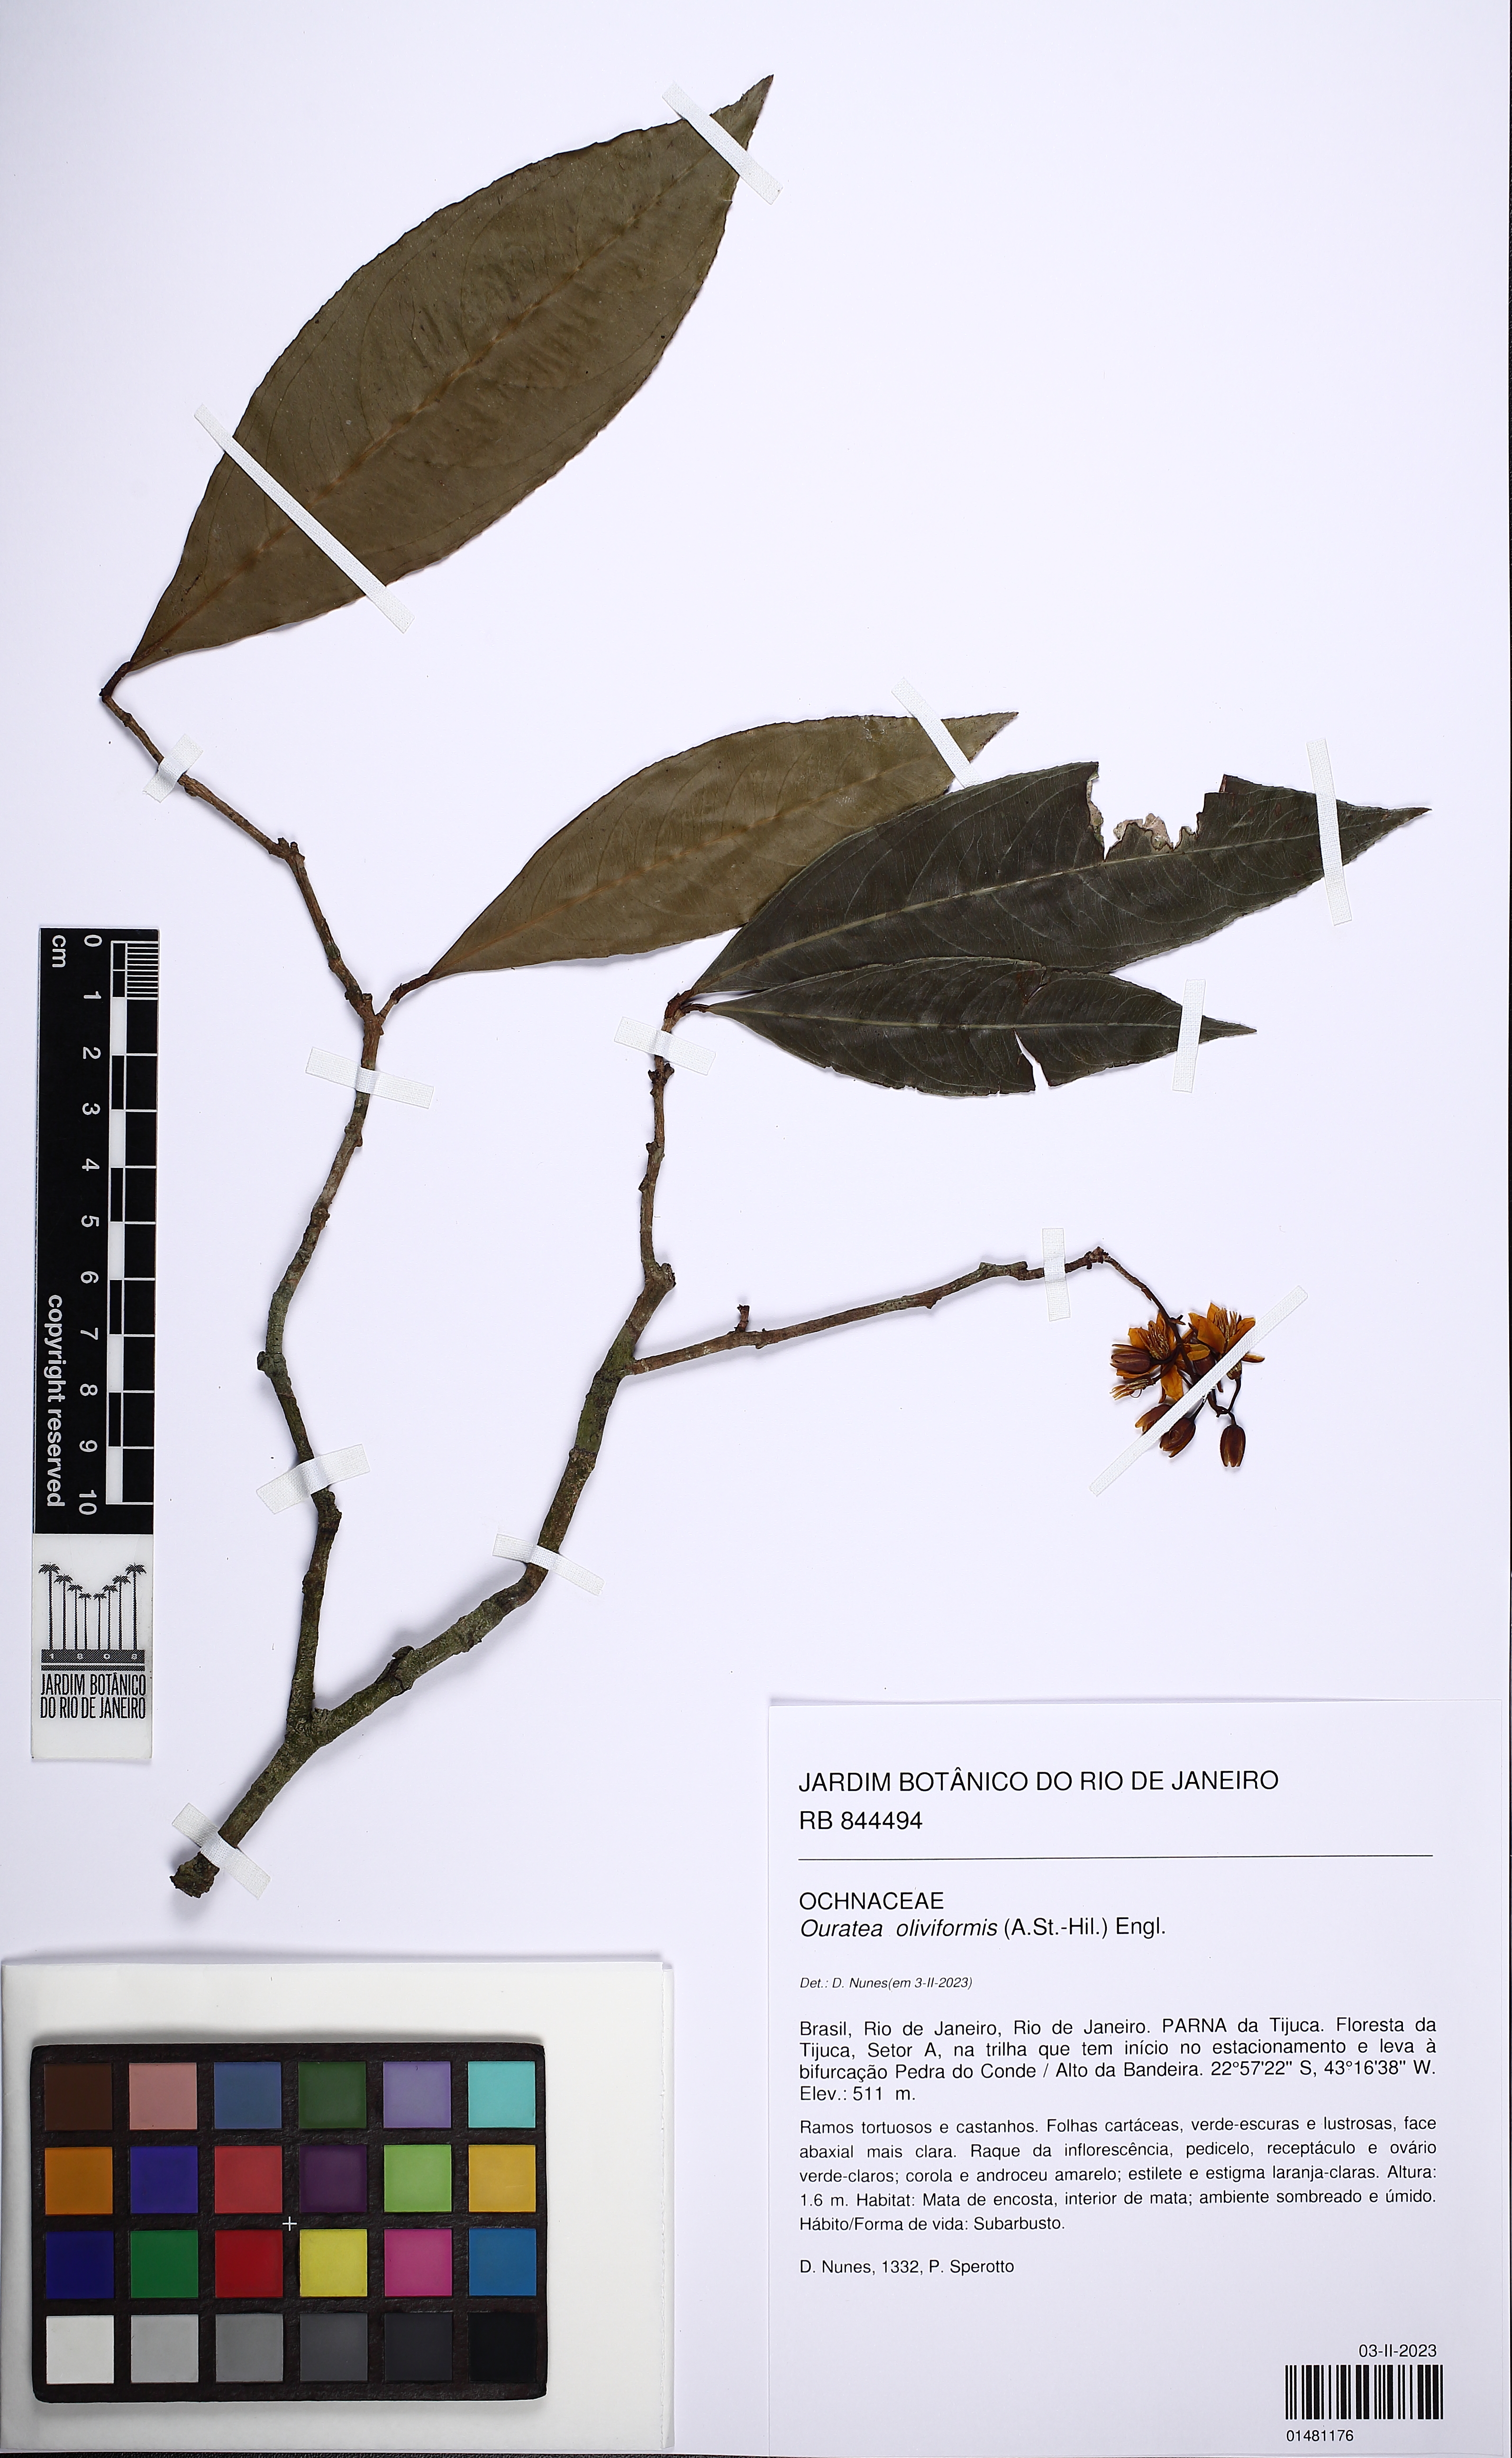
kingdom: Plantae
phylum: Tracheophyta
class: Magnoliopsida
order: Malpighiales
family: Ochnaceae
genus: Ouratea
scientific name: Ouratea oliviformis
